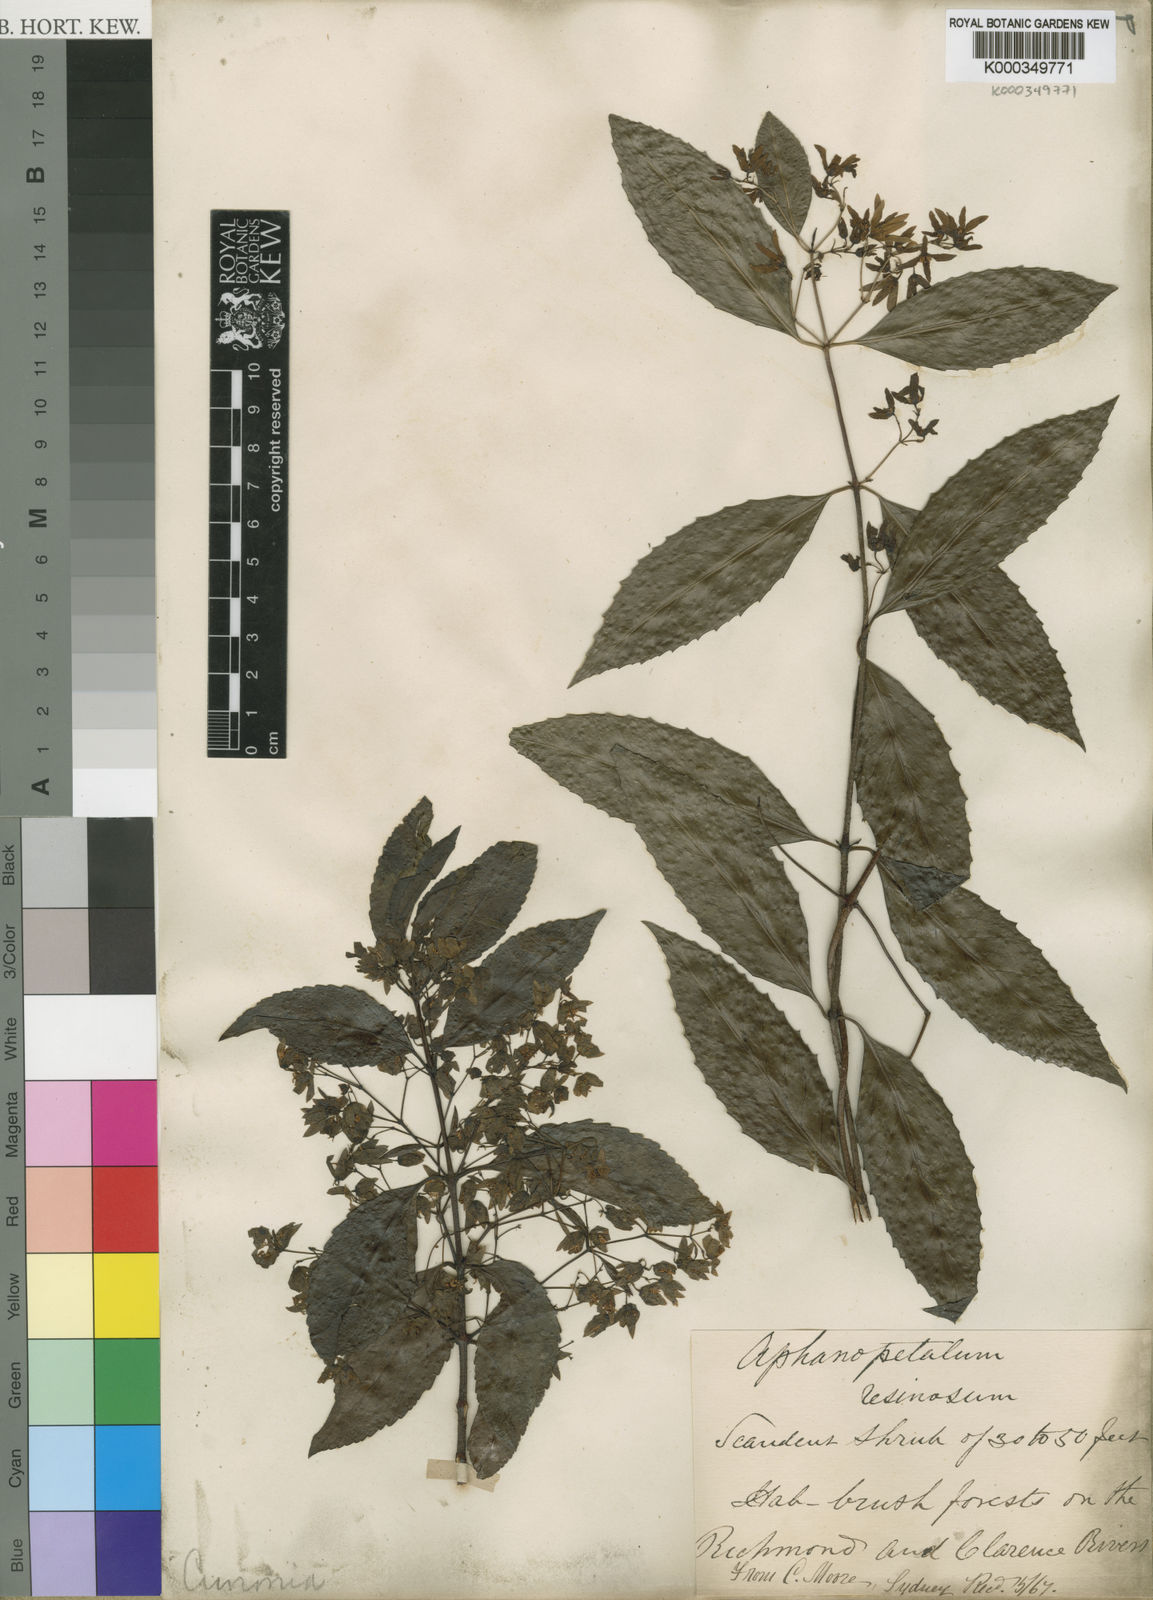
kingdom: Plantae
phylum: Tracheophyta
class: Magnoliopsida
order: Saxifragales
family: Aphanopetalaceae
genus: Aphanopetalum
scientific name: Aphanopetalum resinosum
